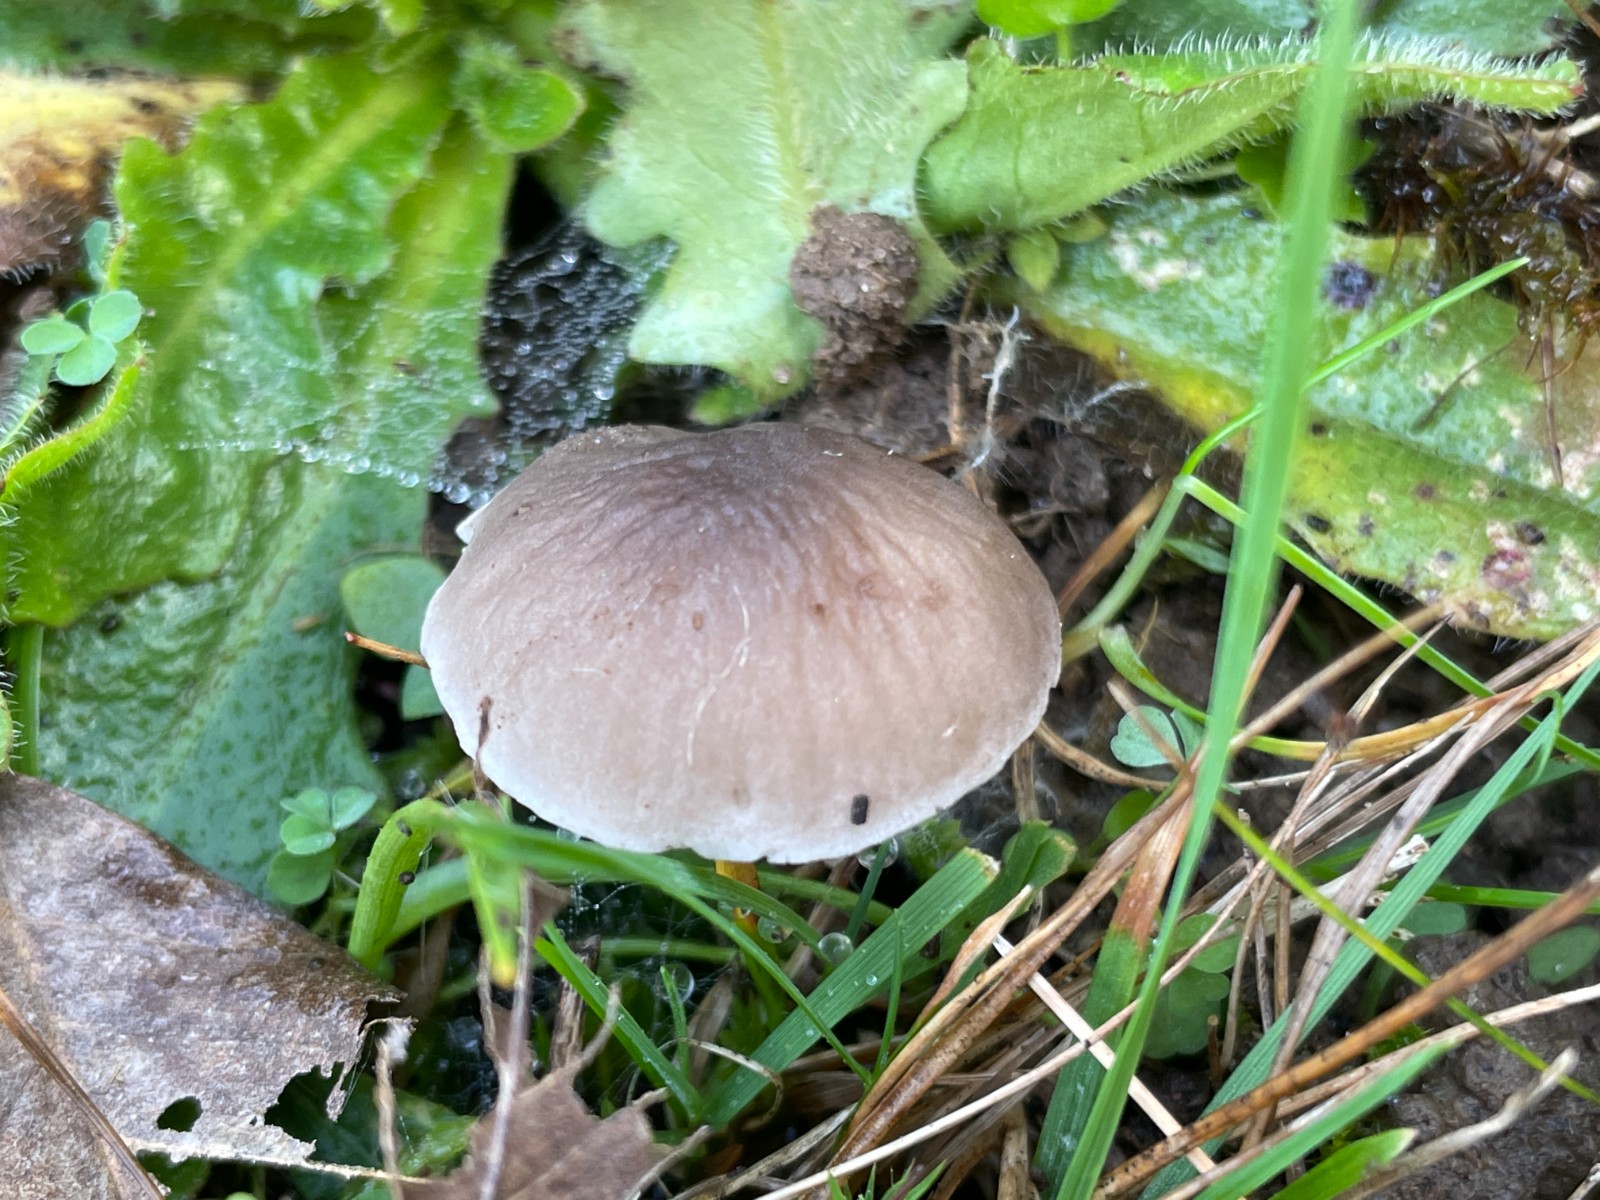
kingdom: Fungi
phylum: Basidiomycota
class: Agaricomycetes
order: Agaricales
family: Tricholomataceae
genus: Dermoloma
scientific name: Dermoloma cuneifolium
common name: eng-nonnehat
